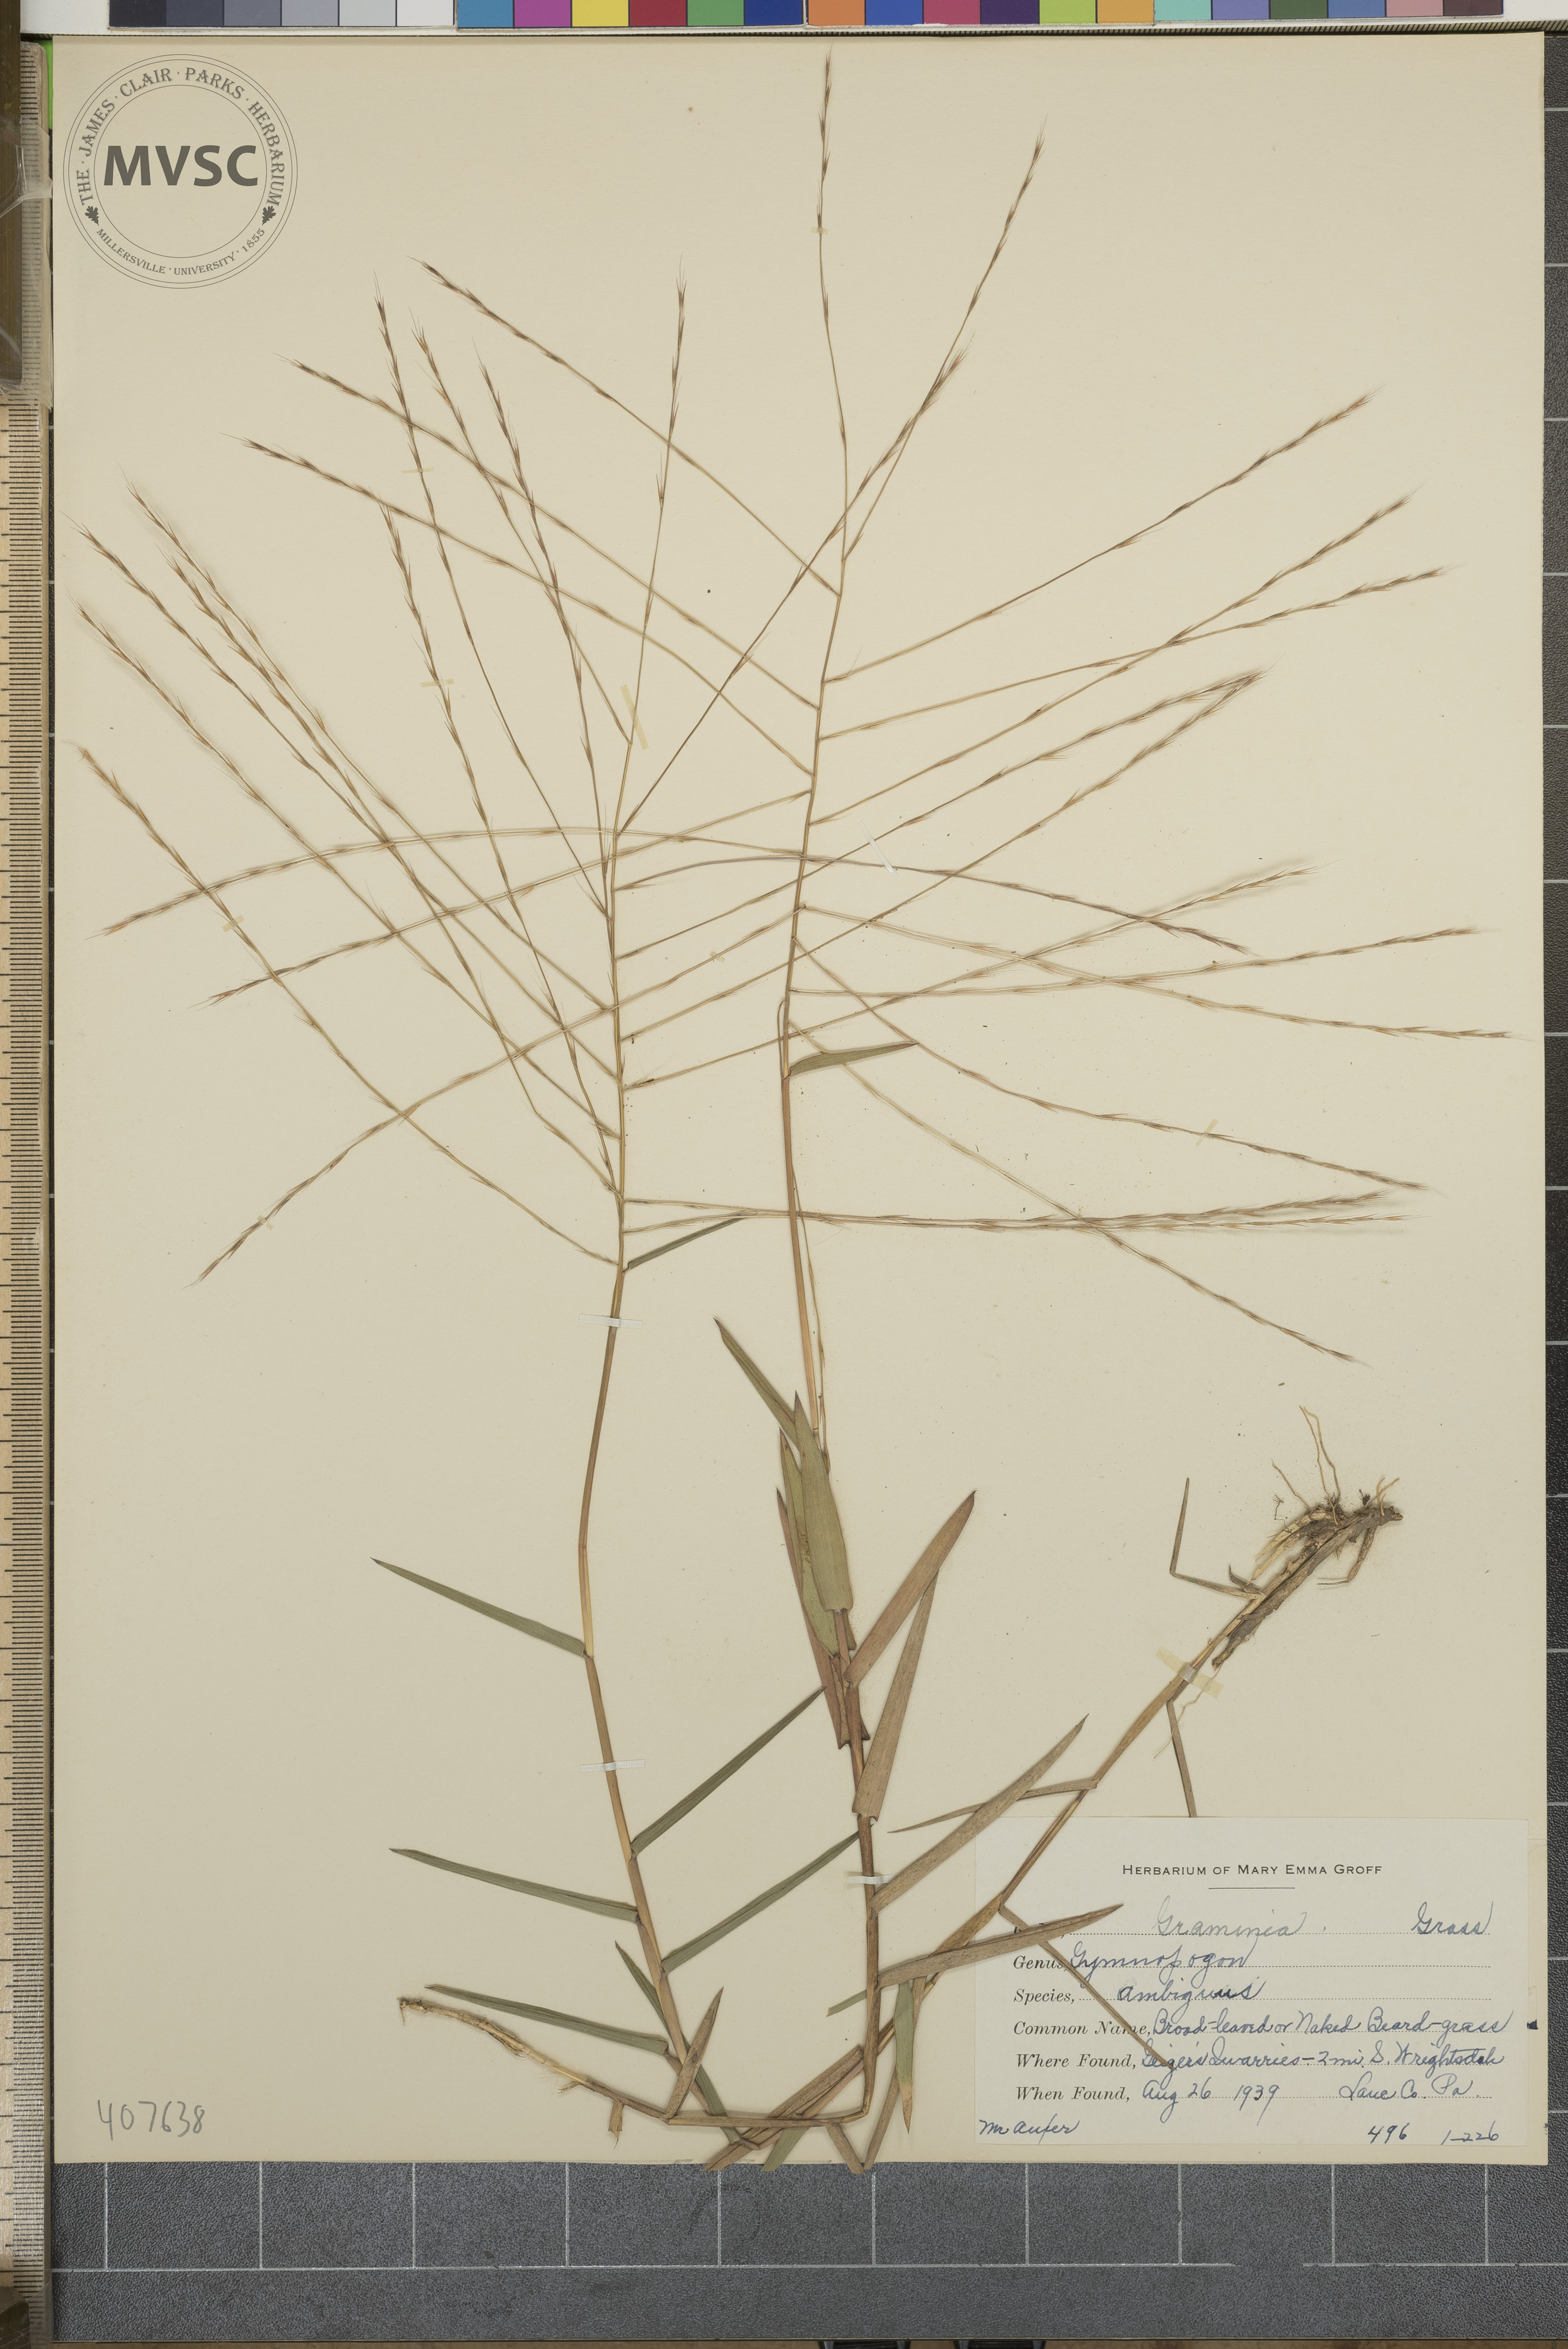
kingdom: Plantae
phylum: Tracheophyta
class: Liliopsida
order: Poales
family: Poaceae
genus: Gymnopogon
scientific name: Gymnopogon ambiguus
